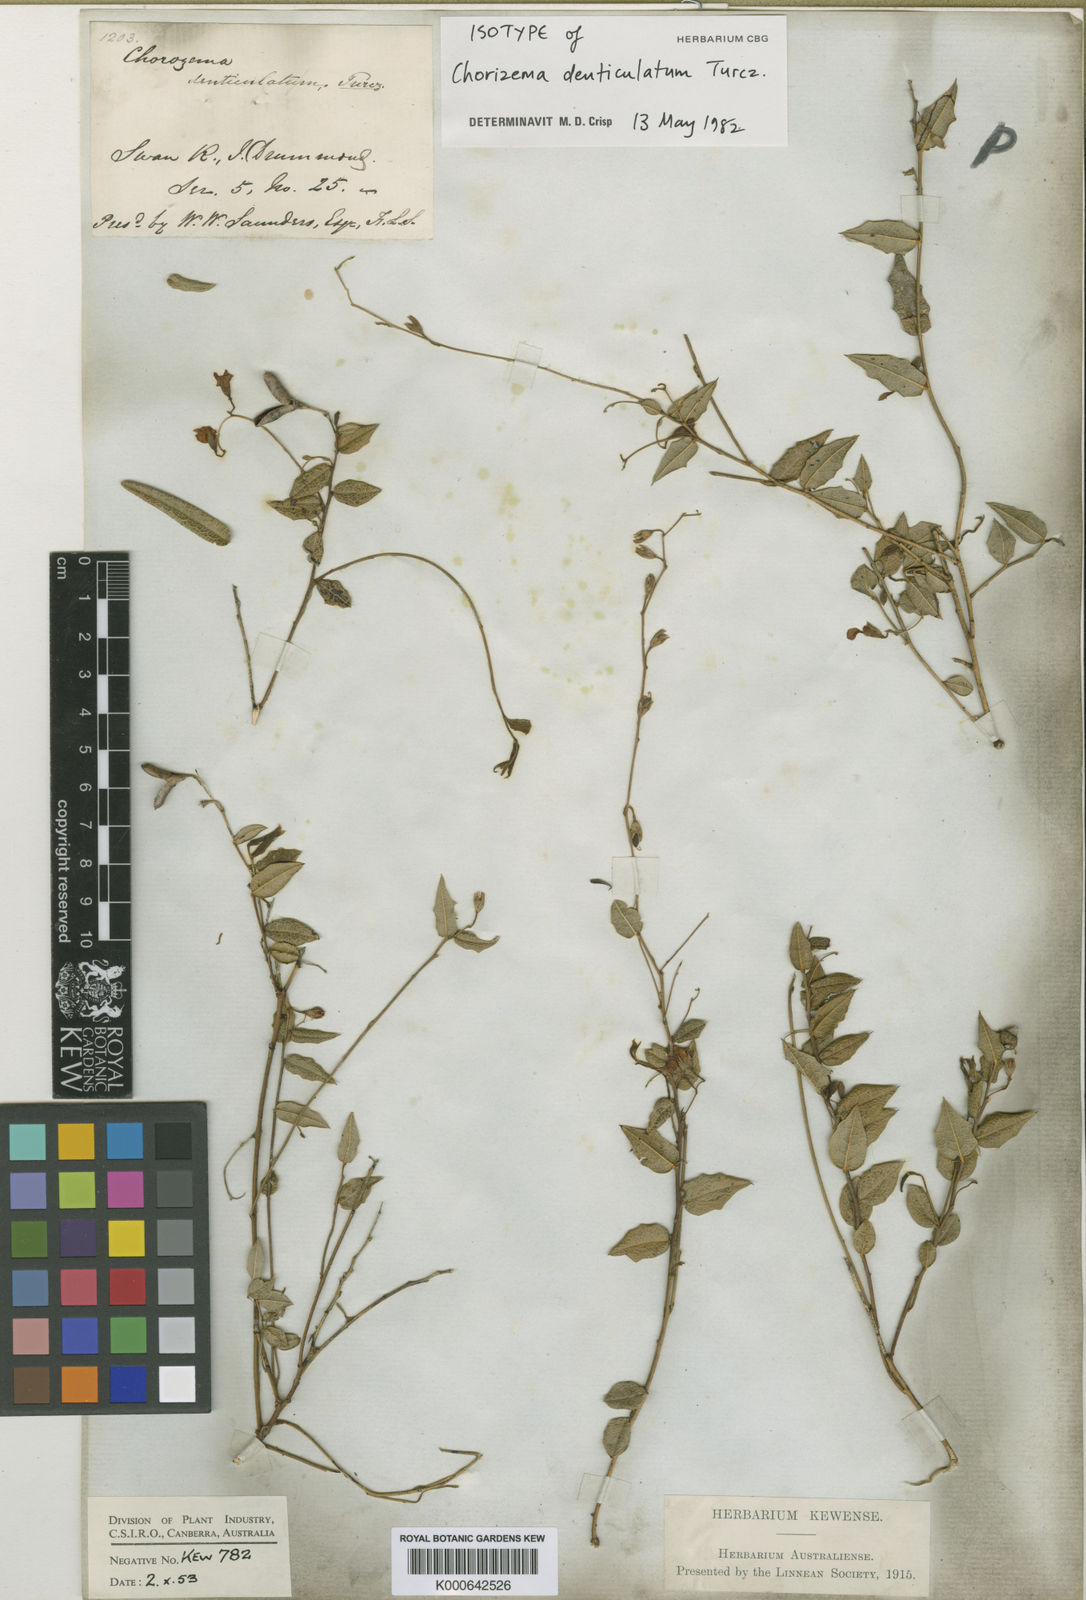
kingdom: Plantae
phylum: Tracheophyta
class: Magnoliopsida
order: Fabales
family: Fabaceae
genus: Chorizema
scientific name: Chorizema glycinifolium
